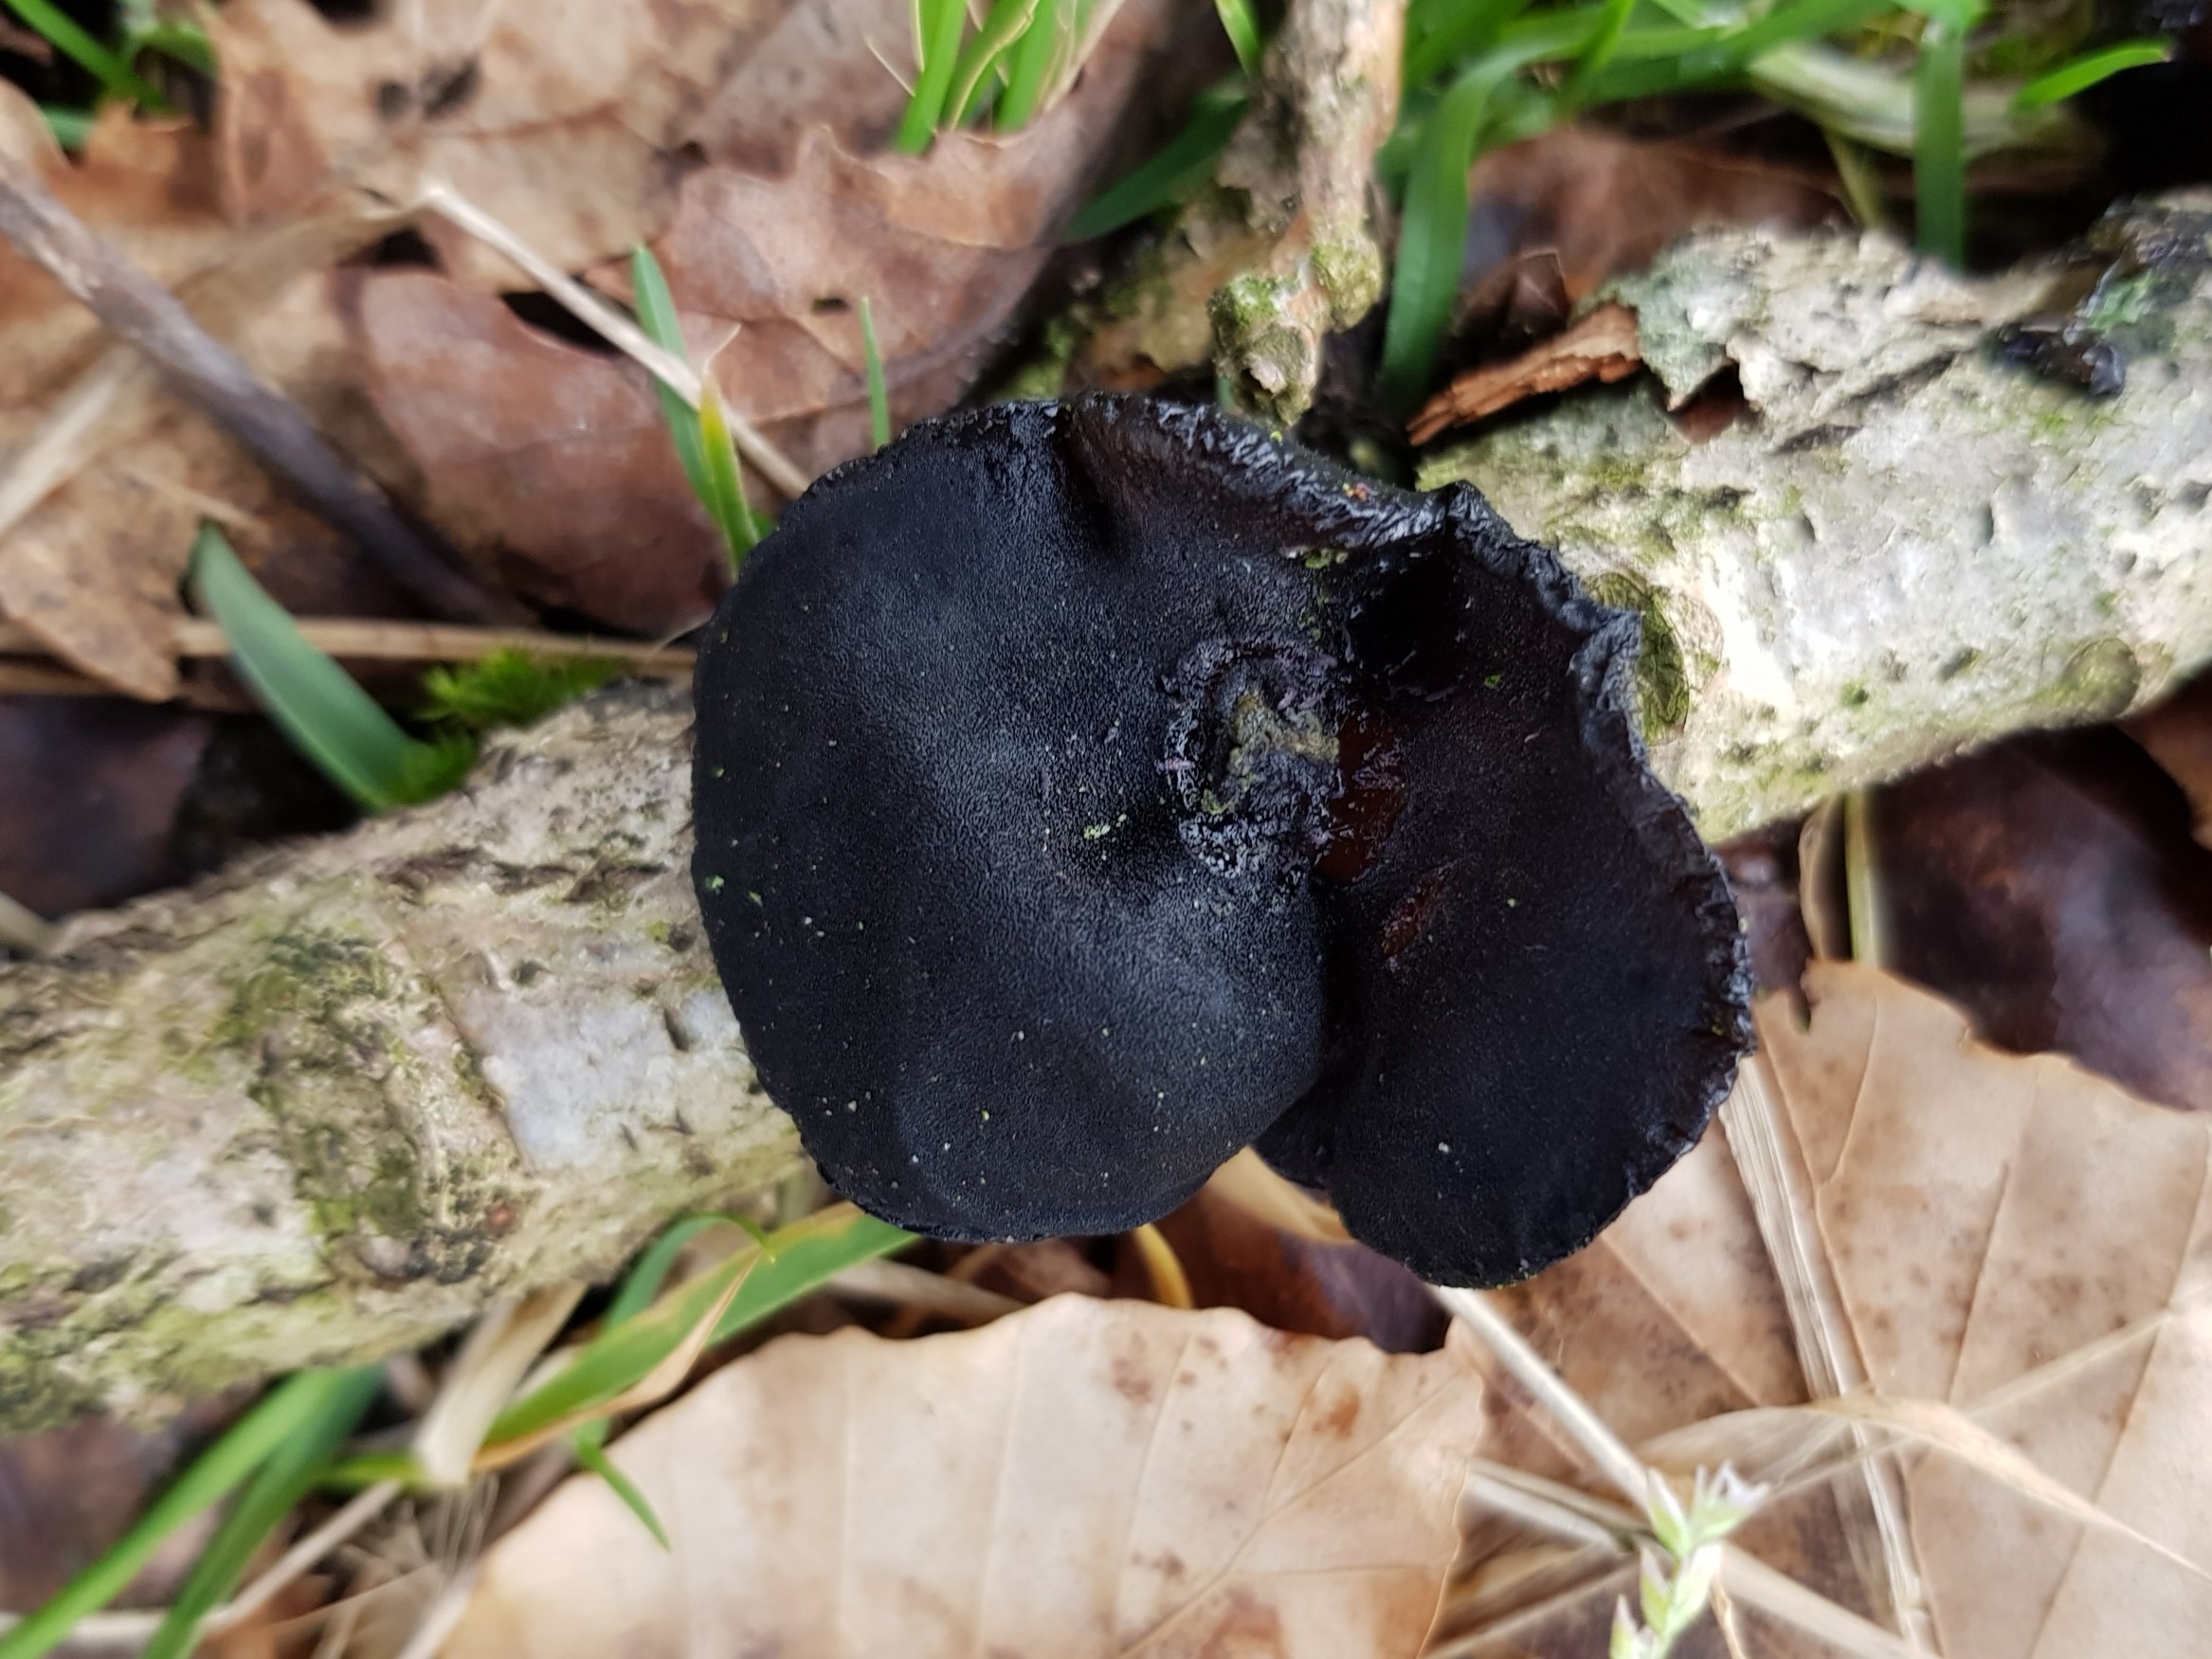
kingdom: Fungi
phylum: Basidiomycota
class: Agaricomycetes
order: Auriculariales
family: Auriculariaceae
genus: Exidia
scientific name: Exidia glandulosa
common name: ege-bævretop
